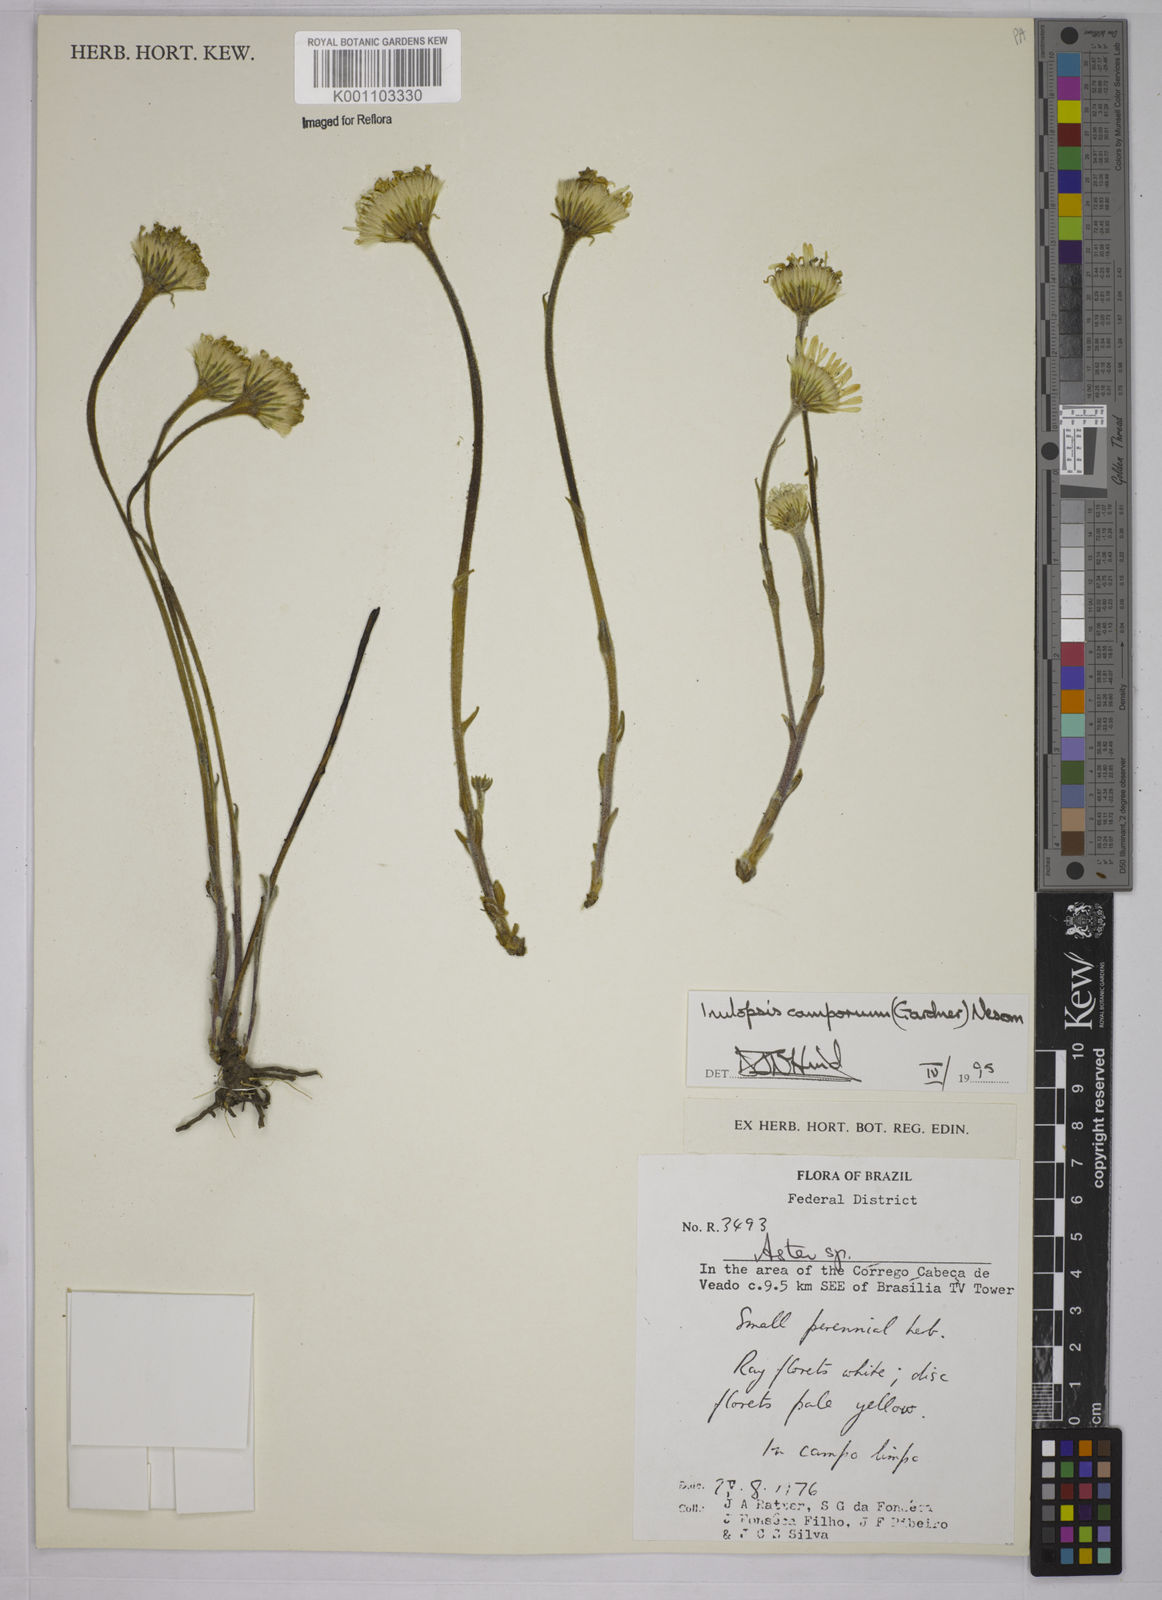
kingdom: Plantae
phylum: Tracheophyta
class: Magnoliopsida
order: Asterales
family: Asteraceae
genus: Inulopsis
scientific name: Inulopsis camporum
